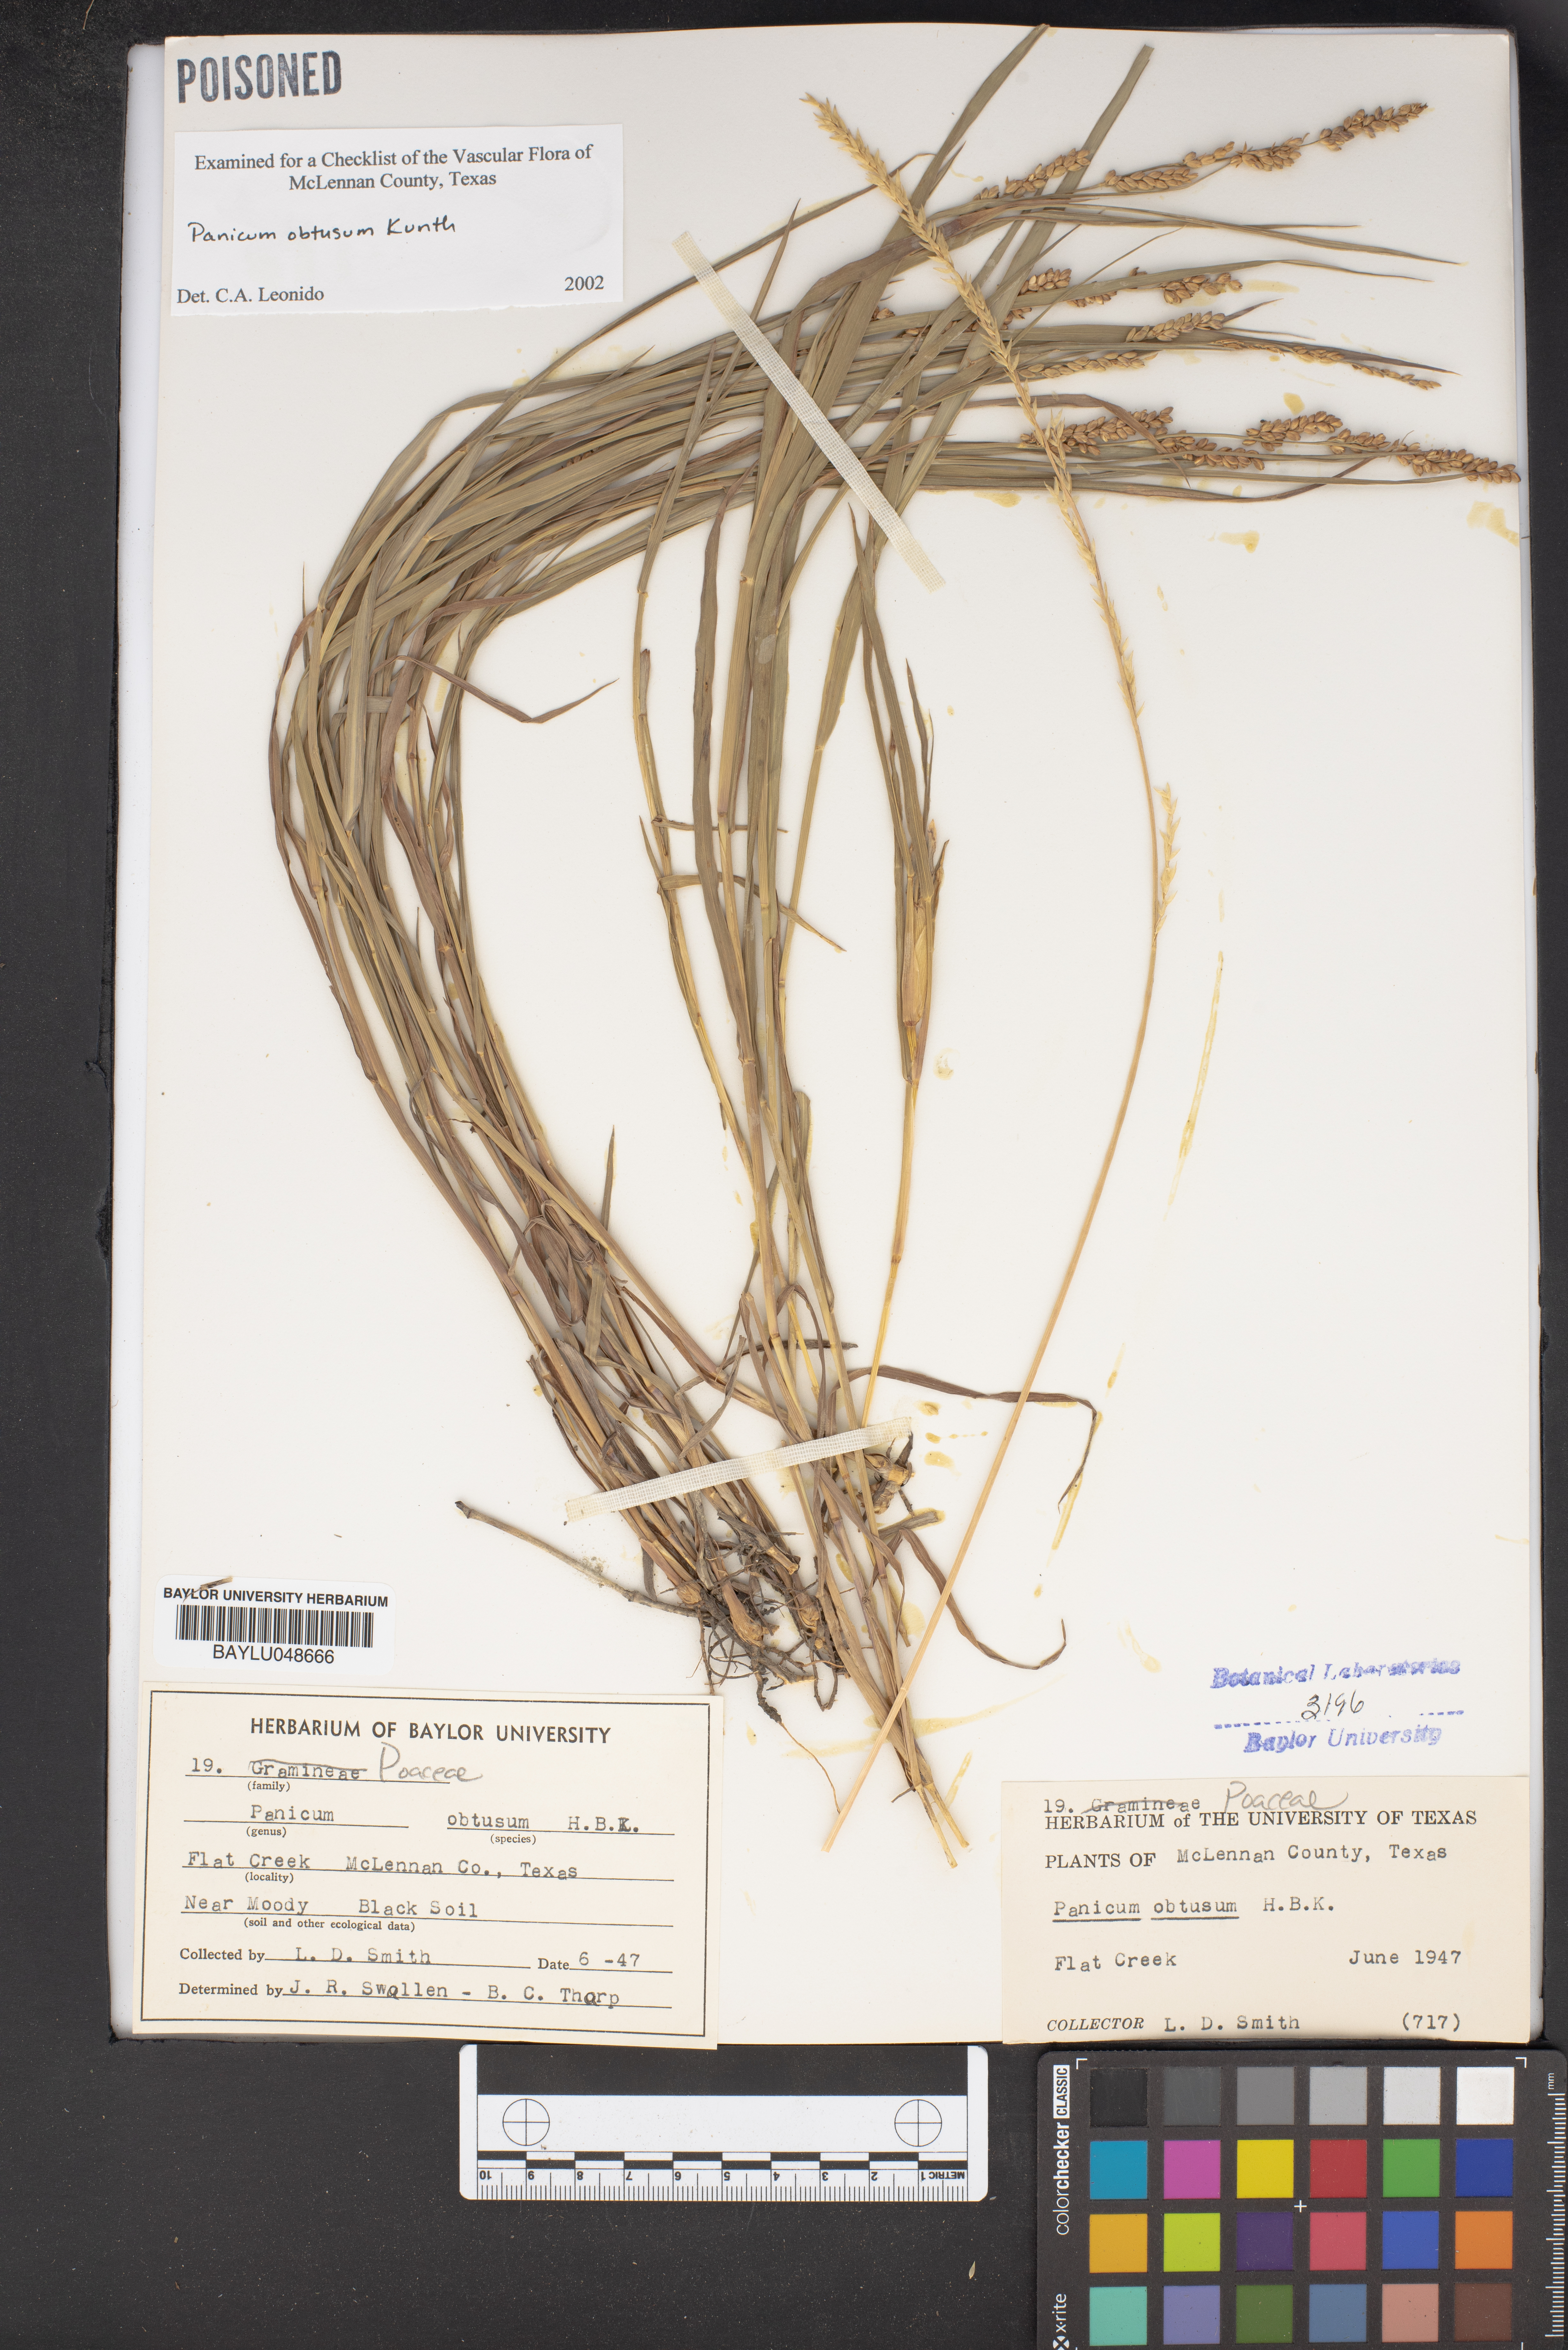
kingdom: Plantae
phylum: Tracheophyta
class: Liliopsida
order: Poales
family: Poaceae
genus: Hopia
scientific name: Hopia obtusa
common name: Vine-mesquite
